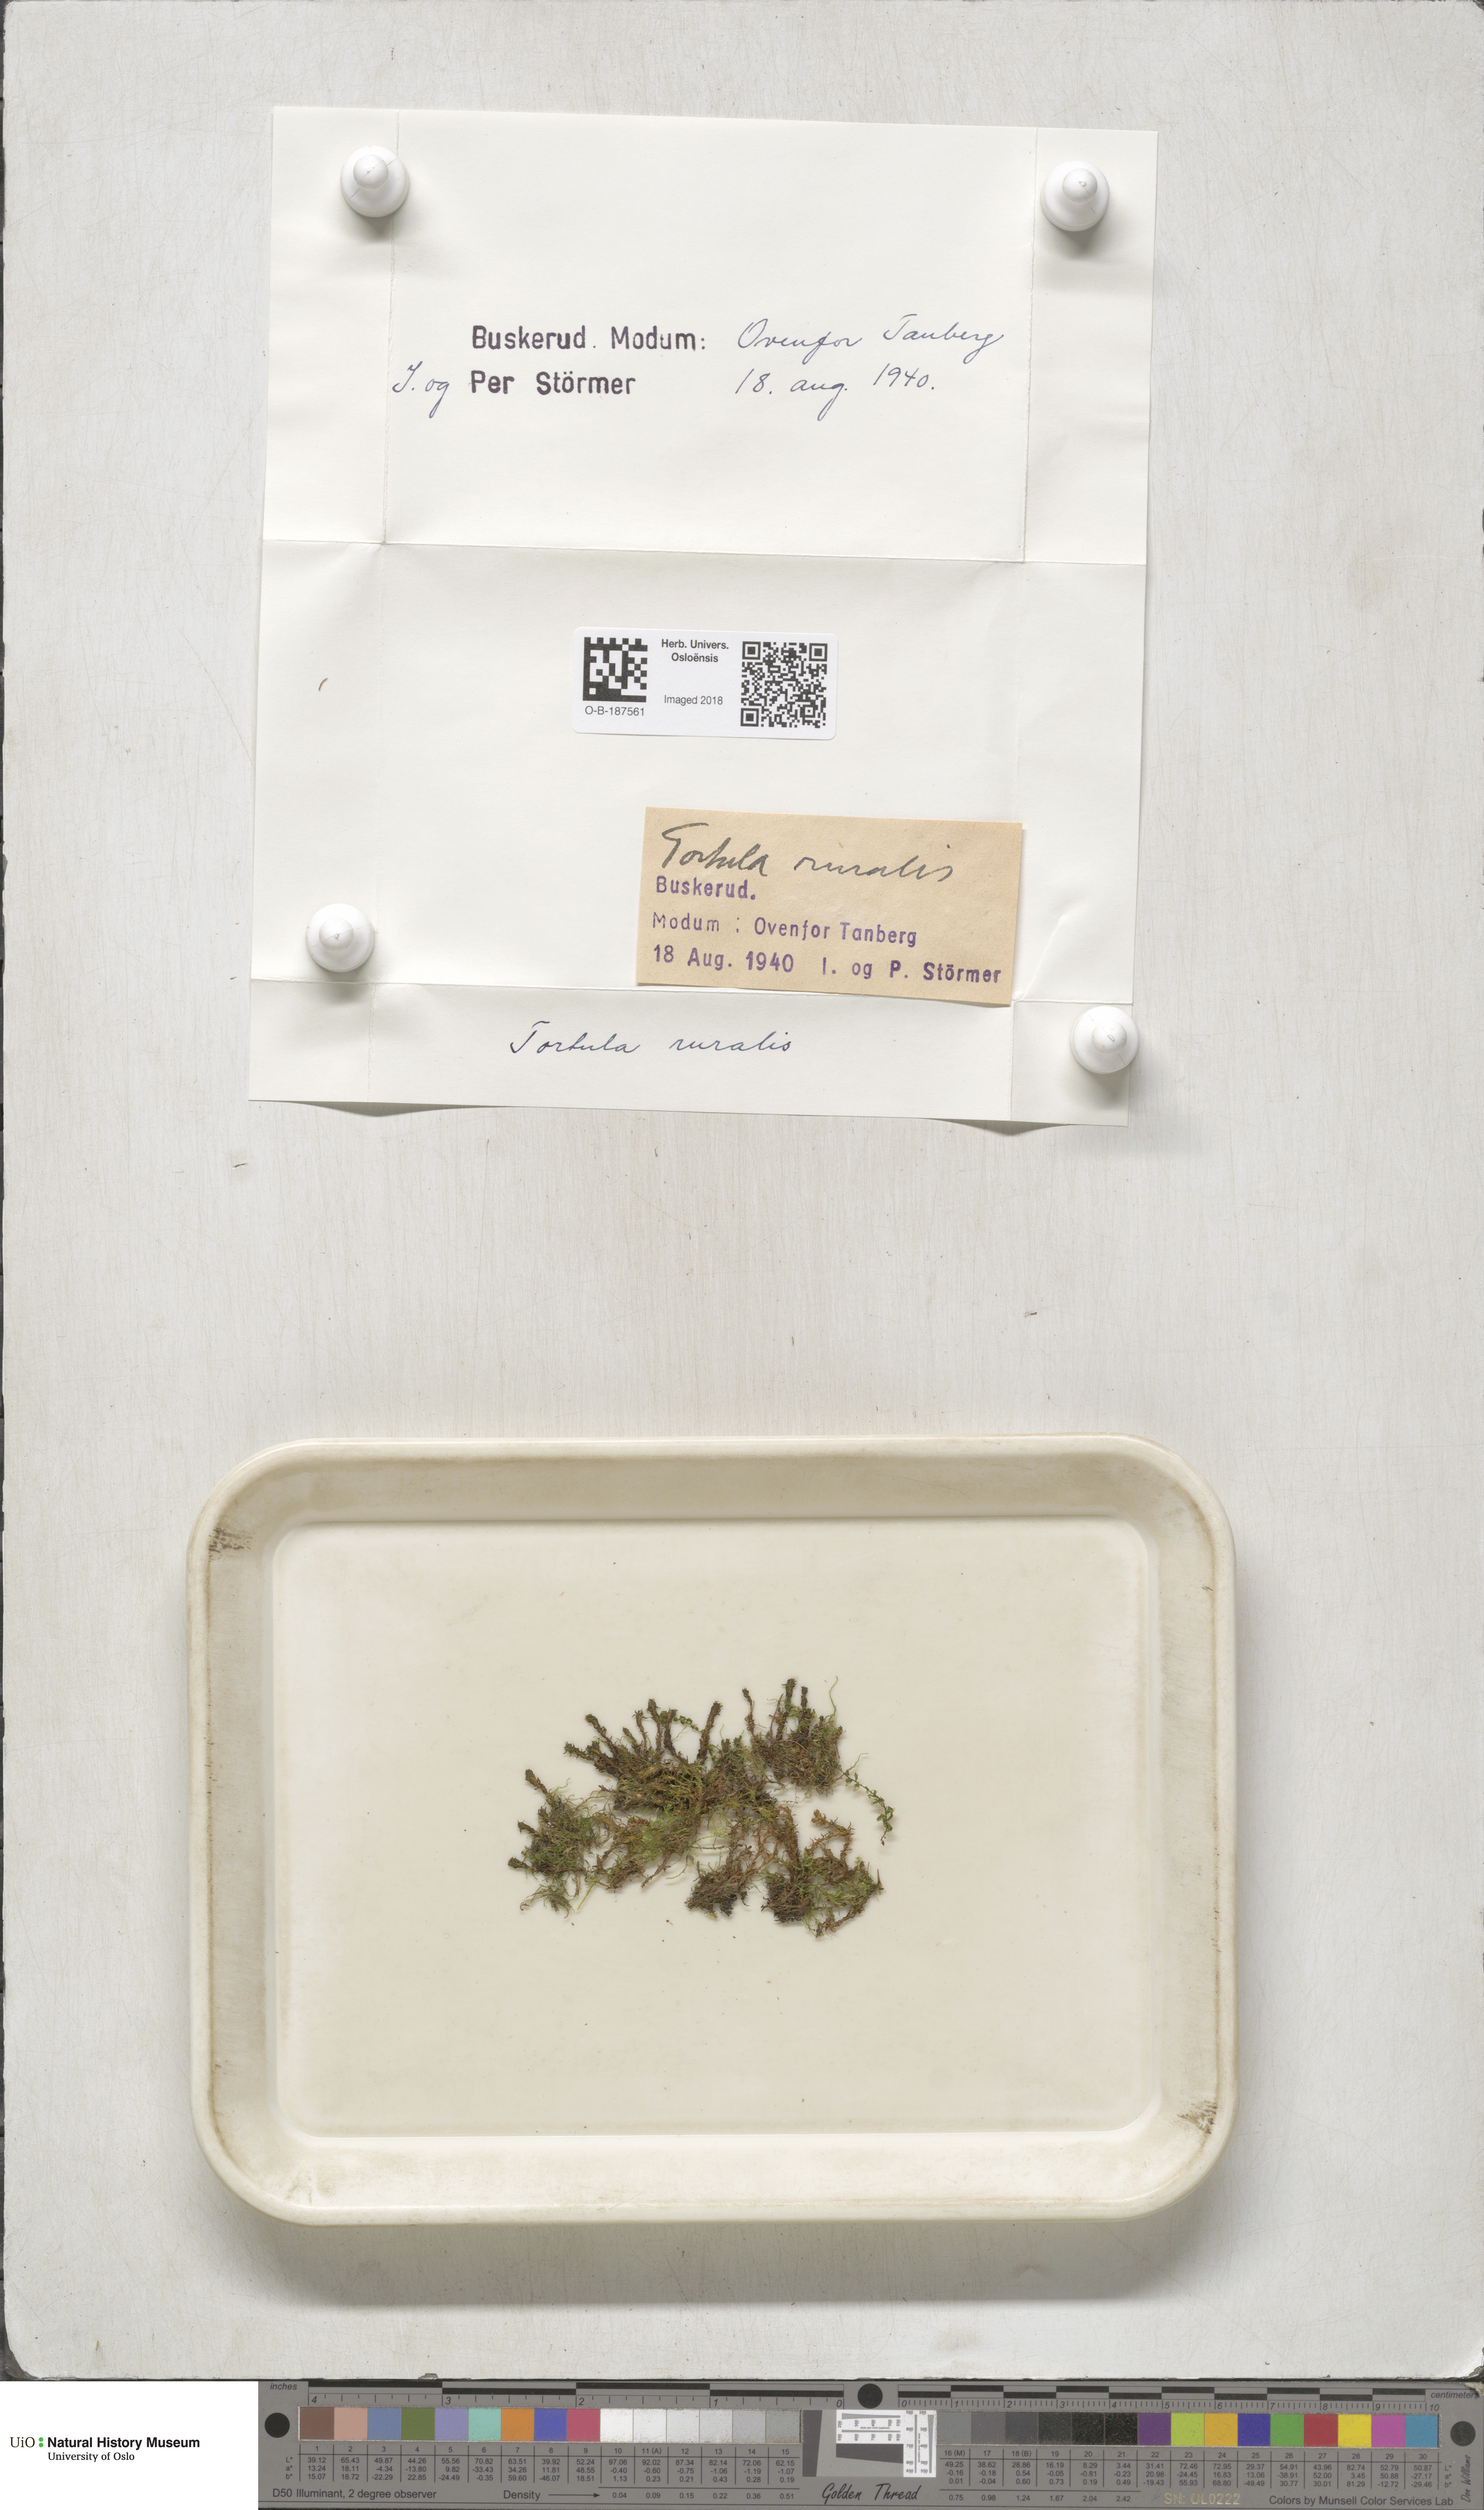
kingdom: Plantae
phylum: Bryophyta
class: Bryopsida
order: Pottiales
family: Pottiaceae
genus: Syntrichia
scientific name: Syntrichia ruralis
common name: Sidewalk screw moss
